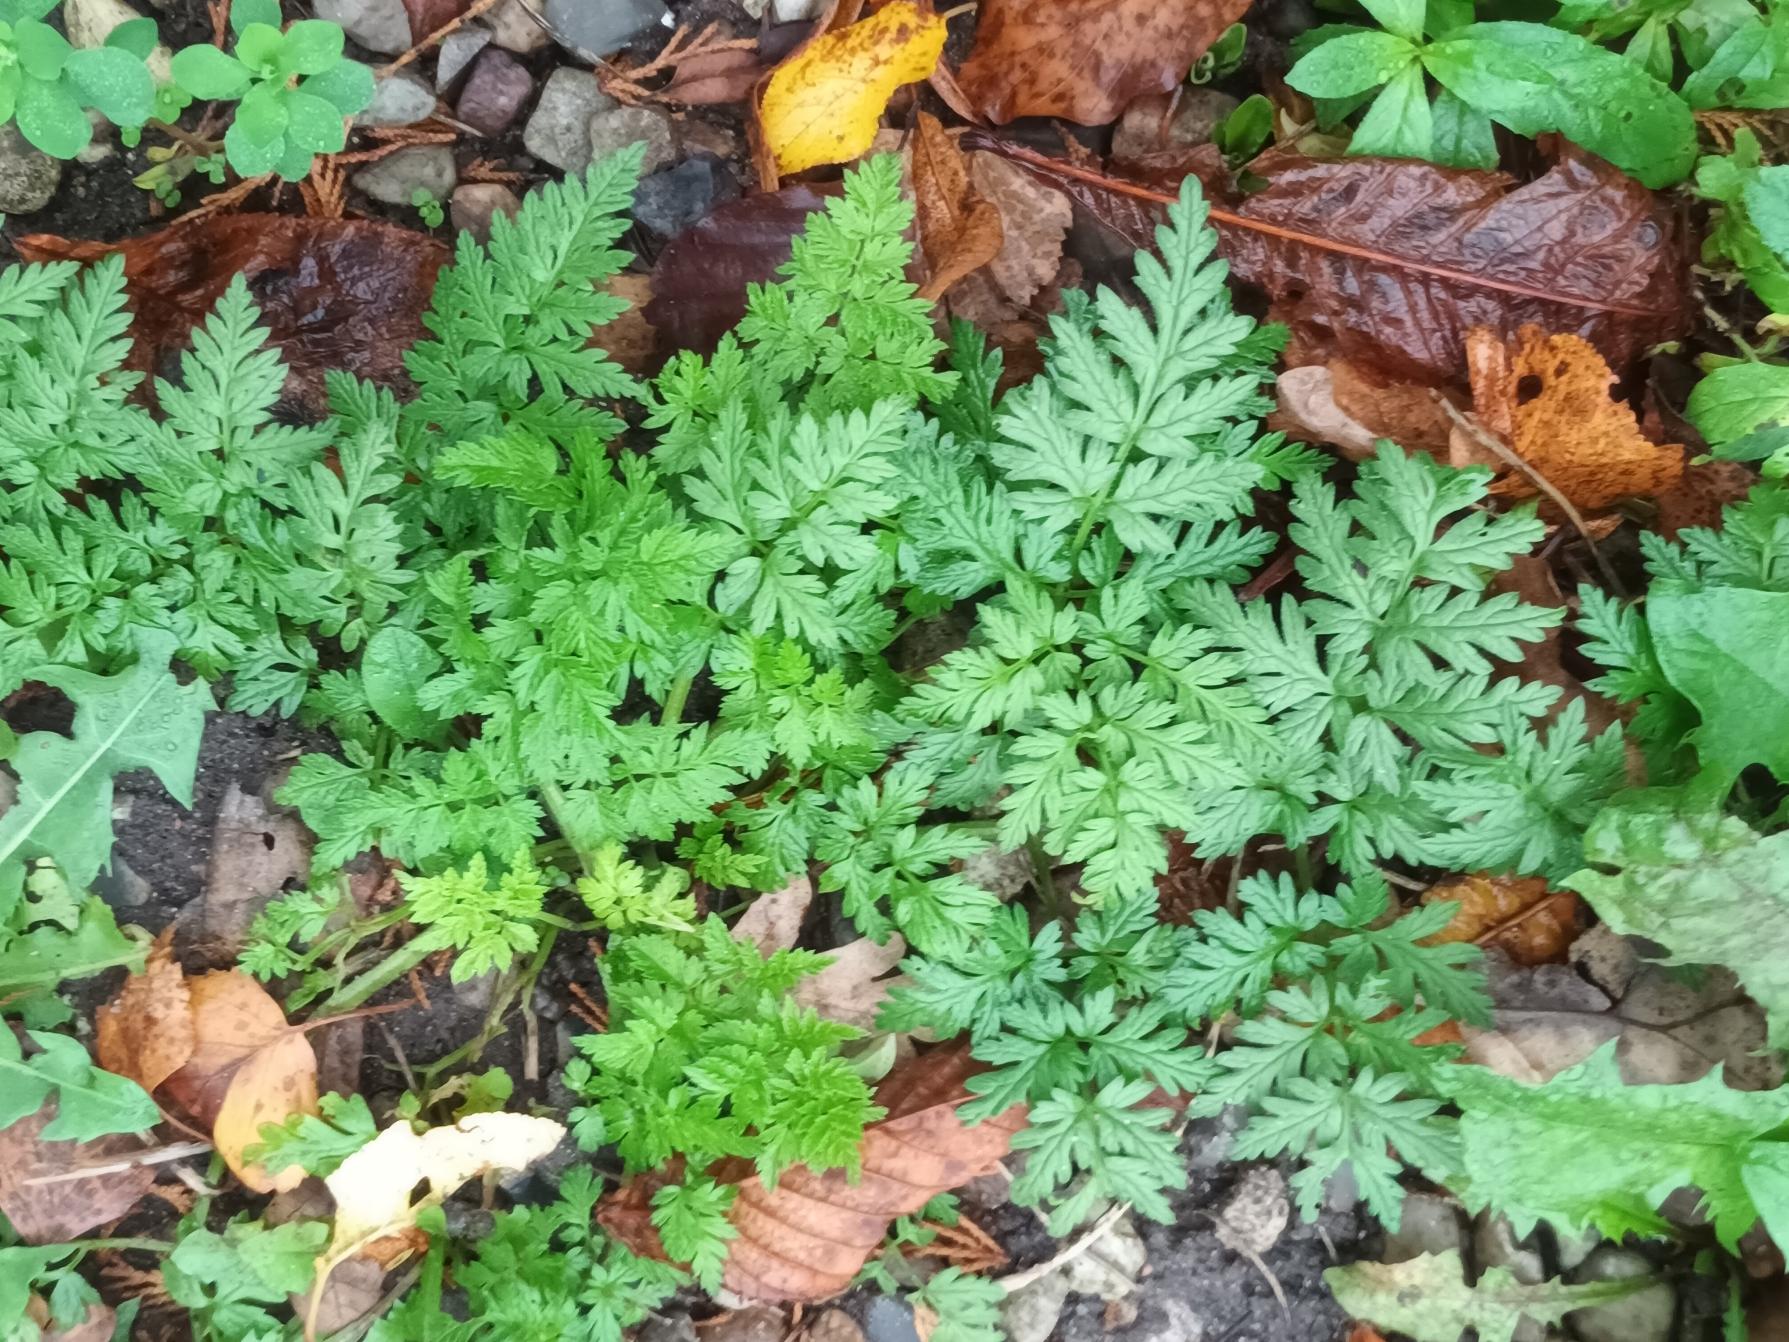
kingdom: Plantae
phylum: Tracheophyta
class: Magnoliopsida
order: Apiales
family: Apiaceae
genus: Anthriscus
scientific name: Anthriscus sylvestris
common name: Vild kørvel
